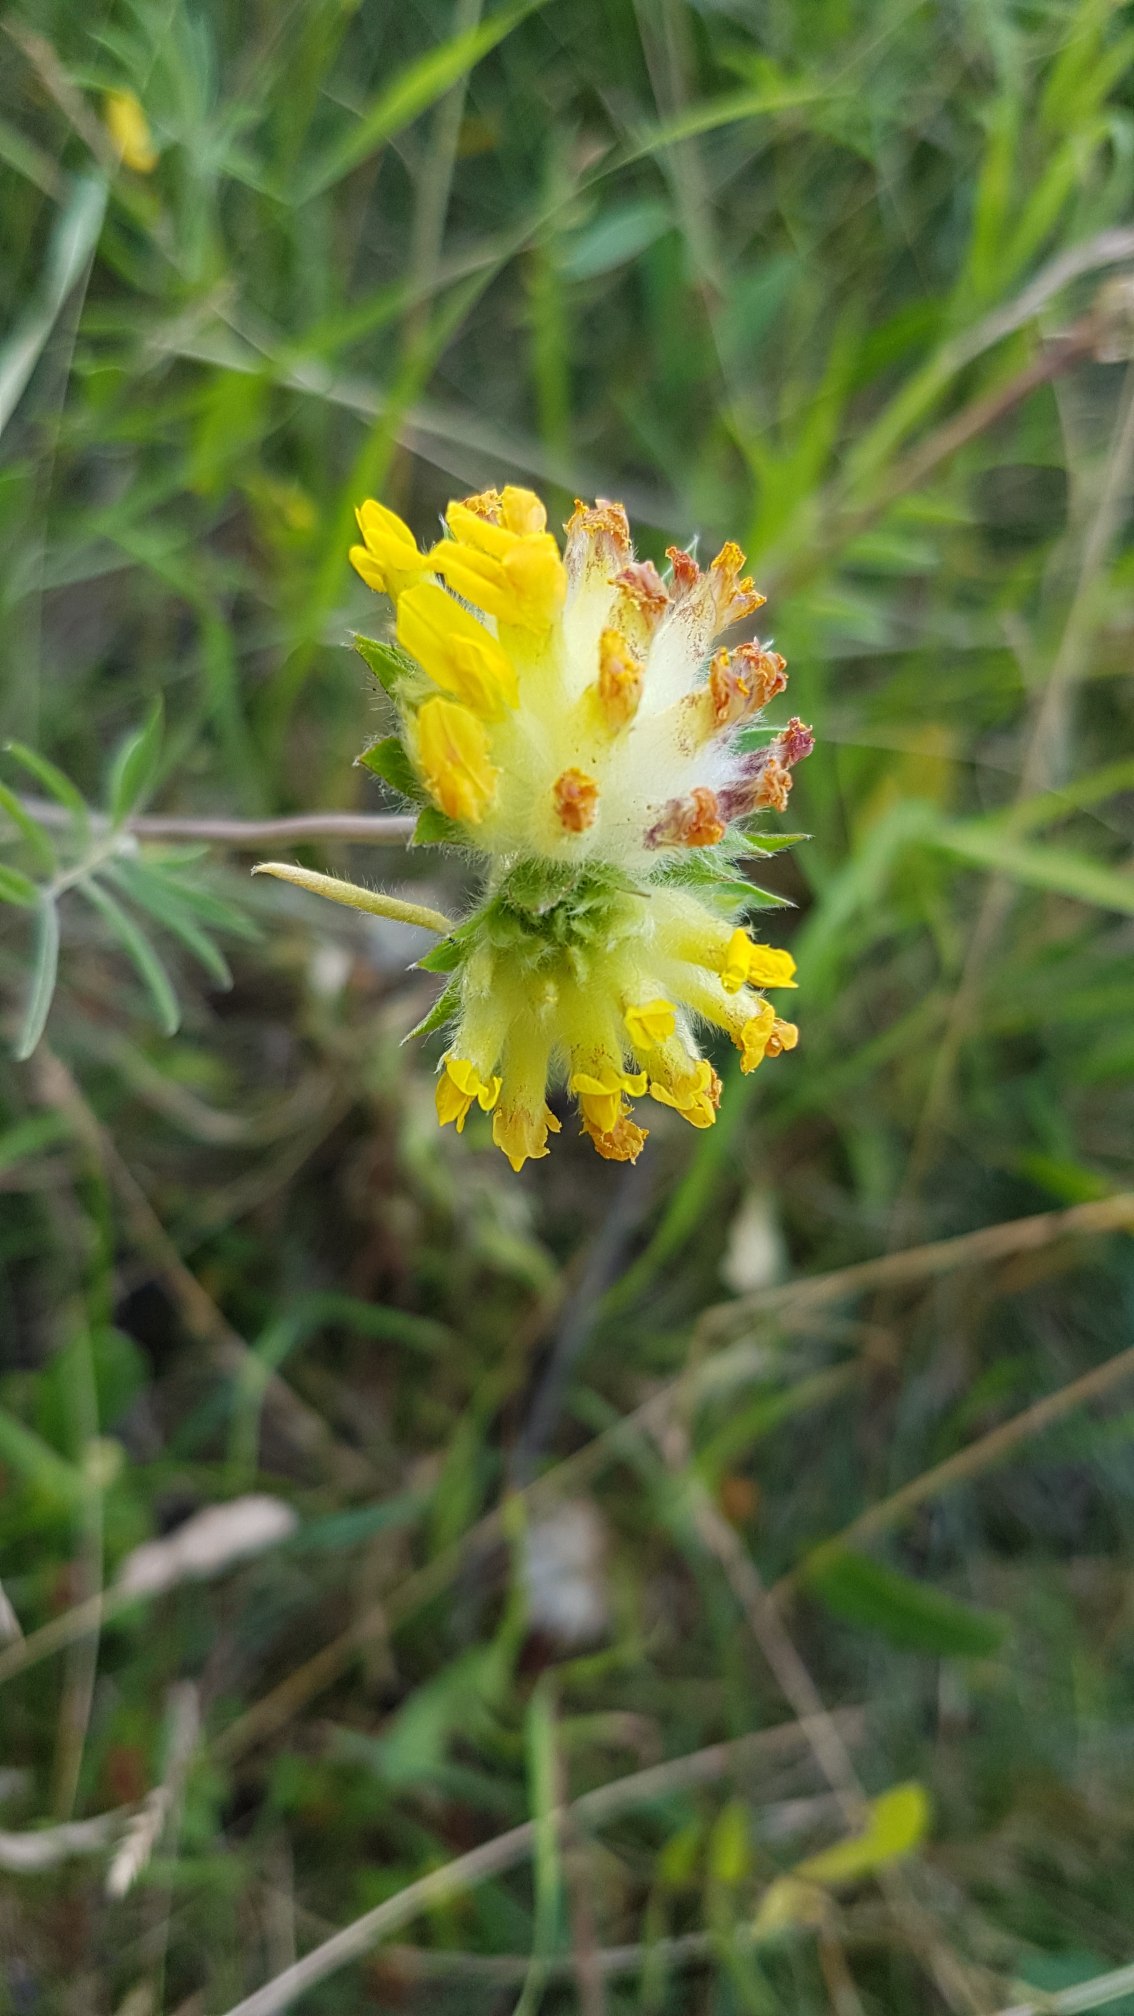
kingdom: Plantae
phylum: Tracheophyta
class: Magnoliopsida
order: Fabales
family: Fabaceae
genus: Anthyllis
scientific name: Anthyllis vulneraria
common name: Rundbælg
